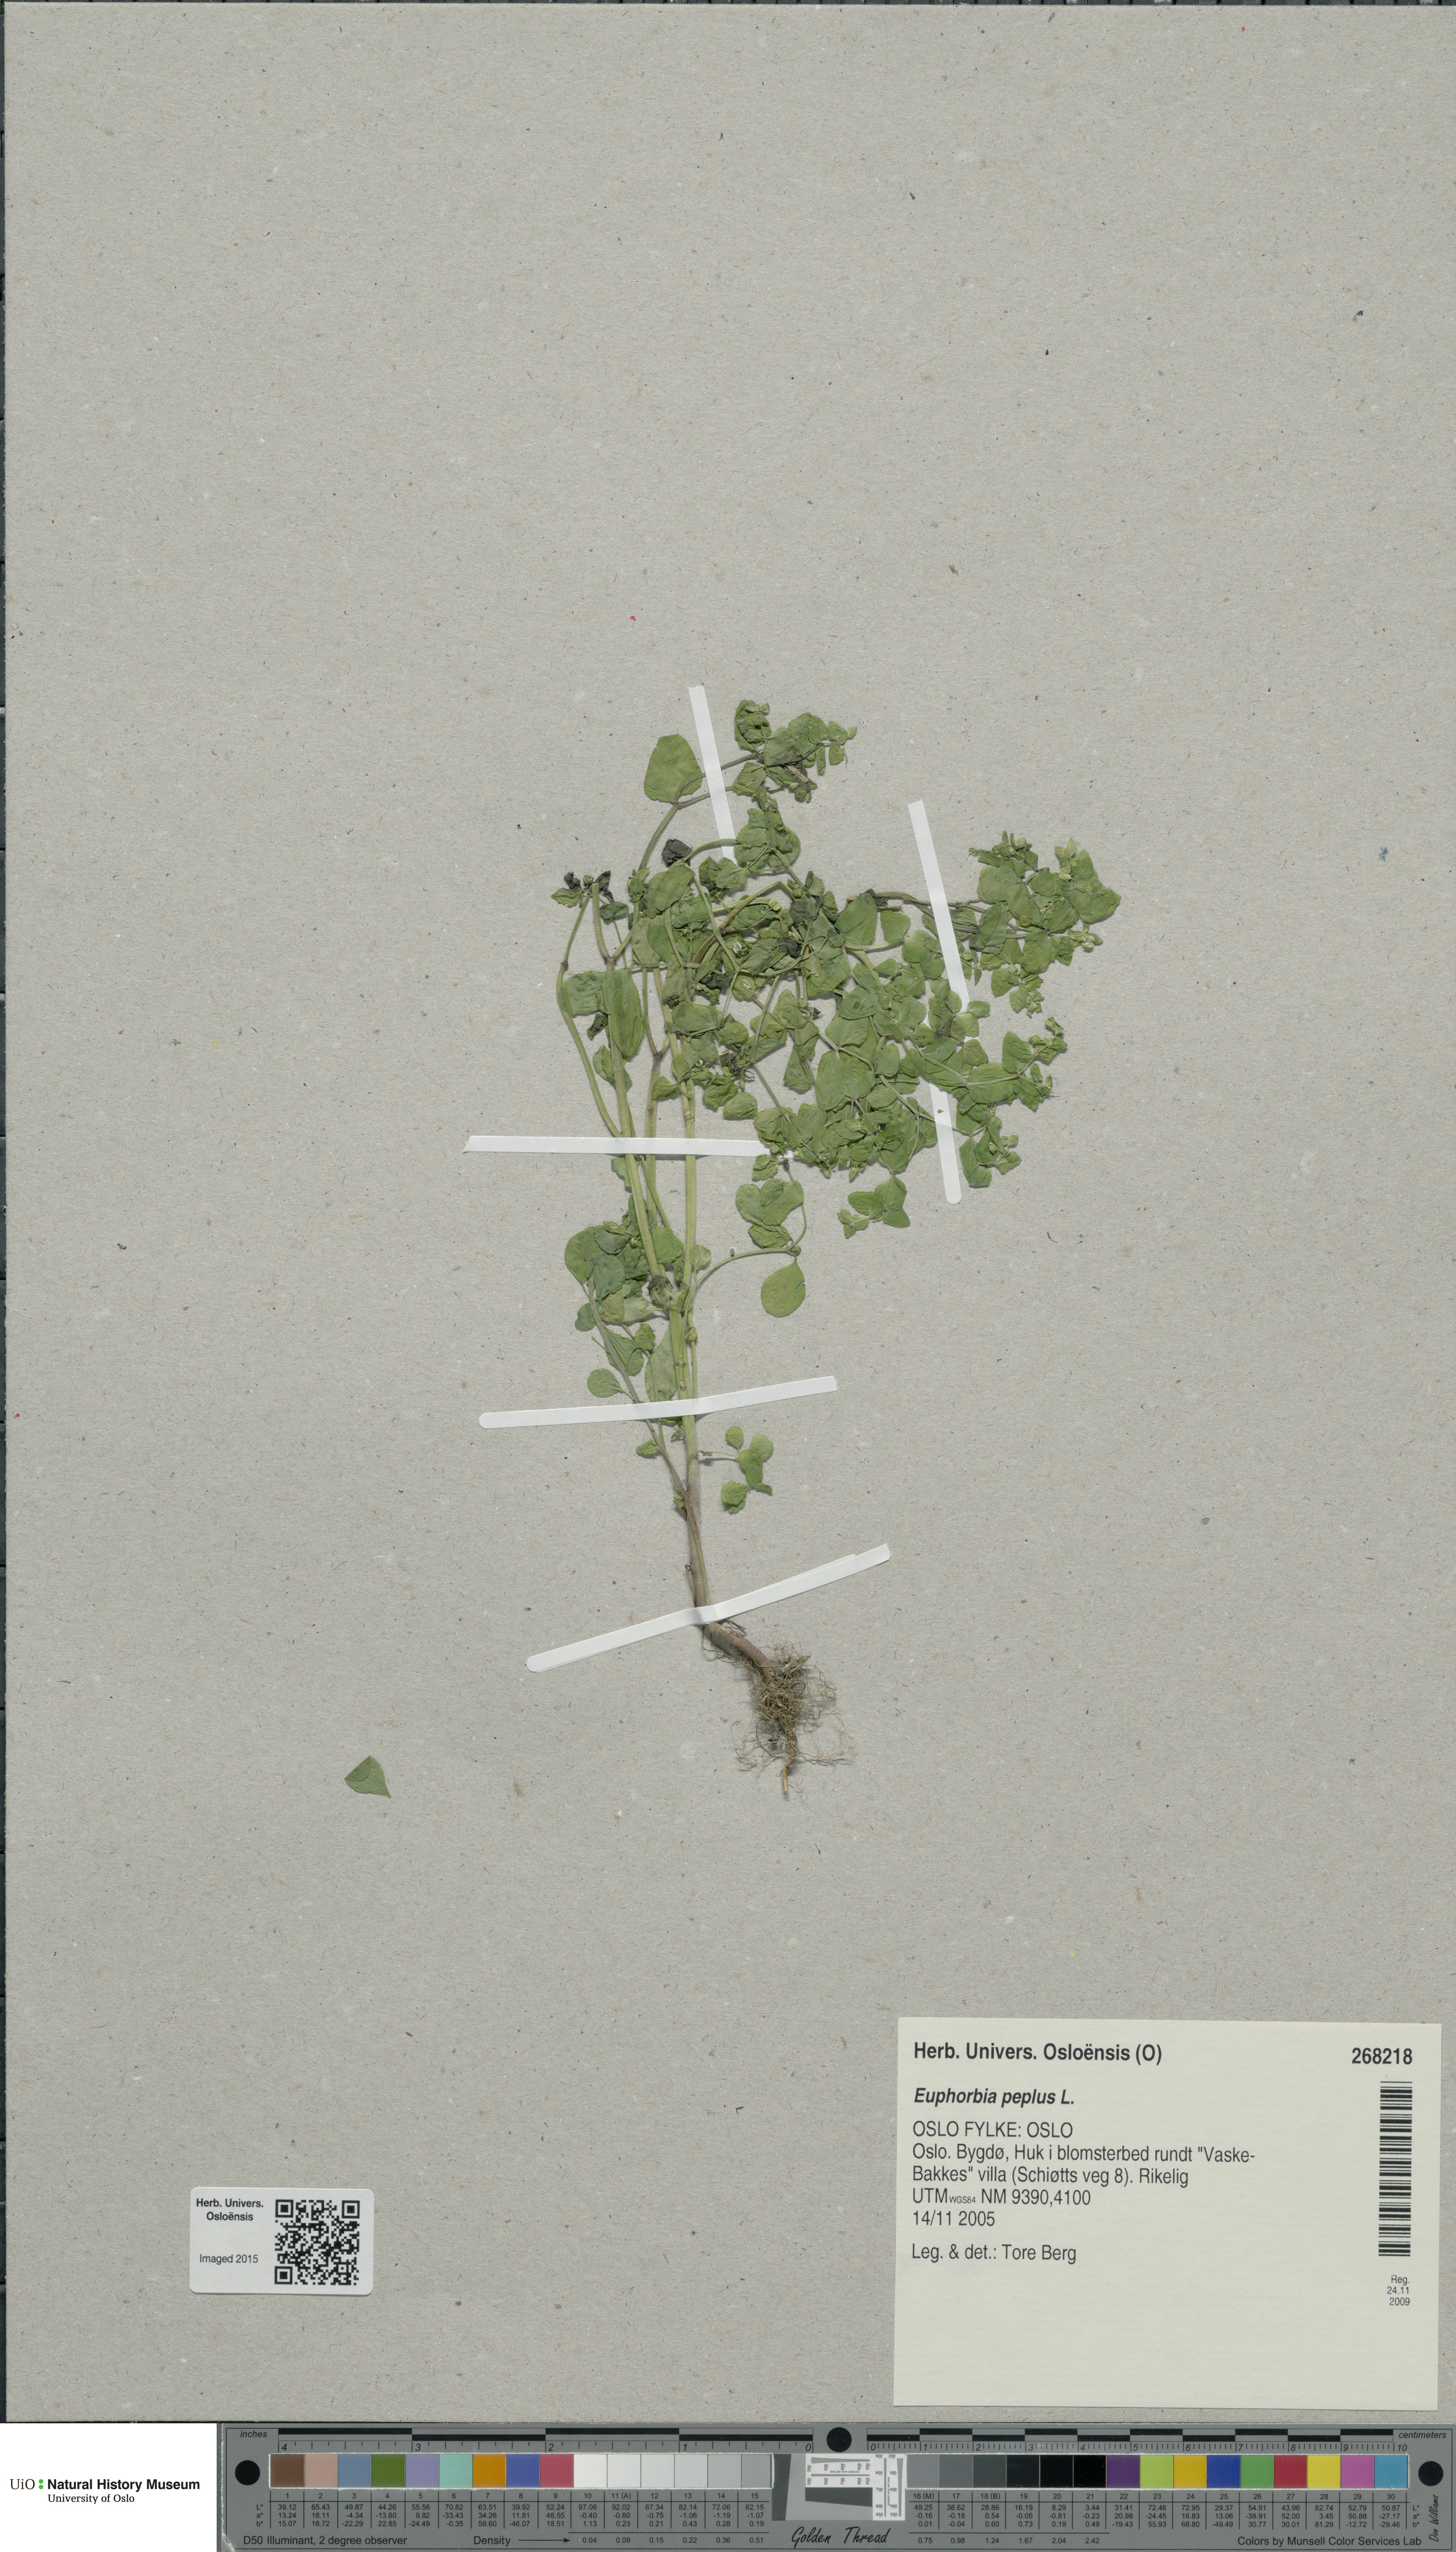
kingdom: Plantae
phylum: Tracheophyta
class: Magnoliopsida
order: Malpighiales
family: Euphorbiaceae
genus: Euphorbia
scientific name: Euphorbia peplus
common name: Petty spurge
